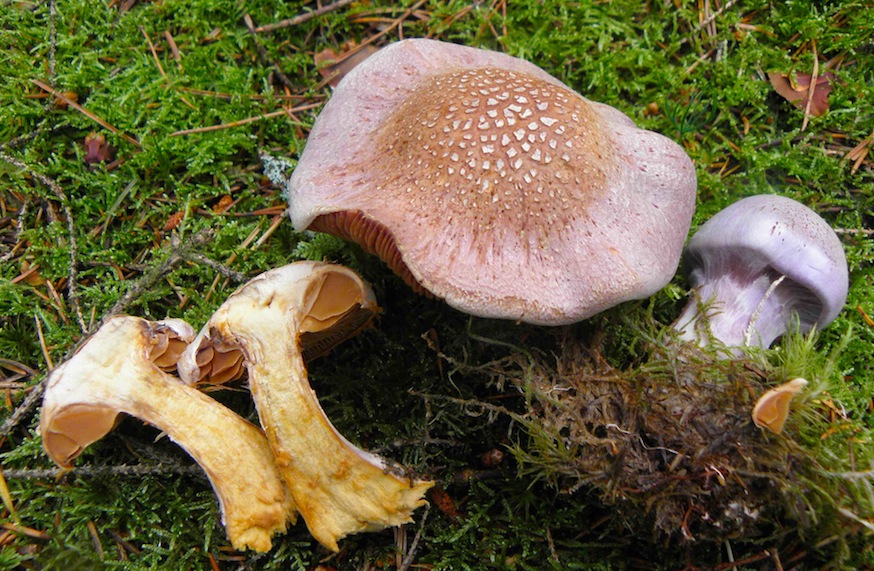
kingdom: Fungi
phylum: Basidiomycota
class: Agaricomycetes
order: Agaricales
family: Cortinariaceae
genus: Cortinarius
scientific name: Cortinarius traganus
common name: safrankødet slørhat
